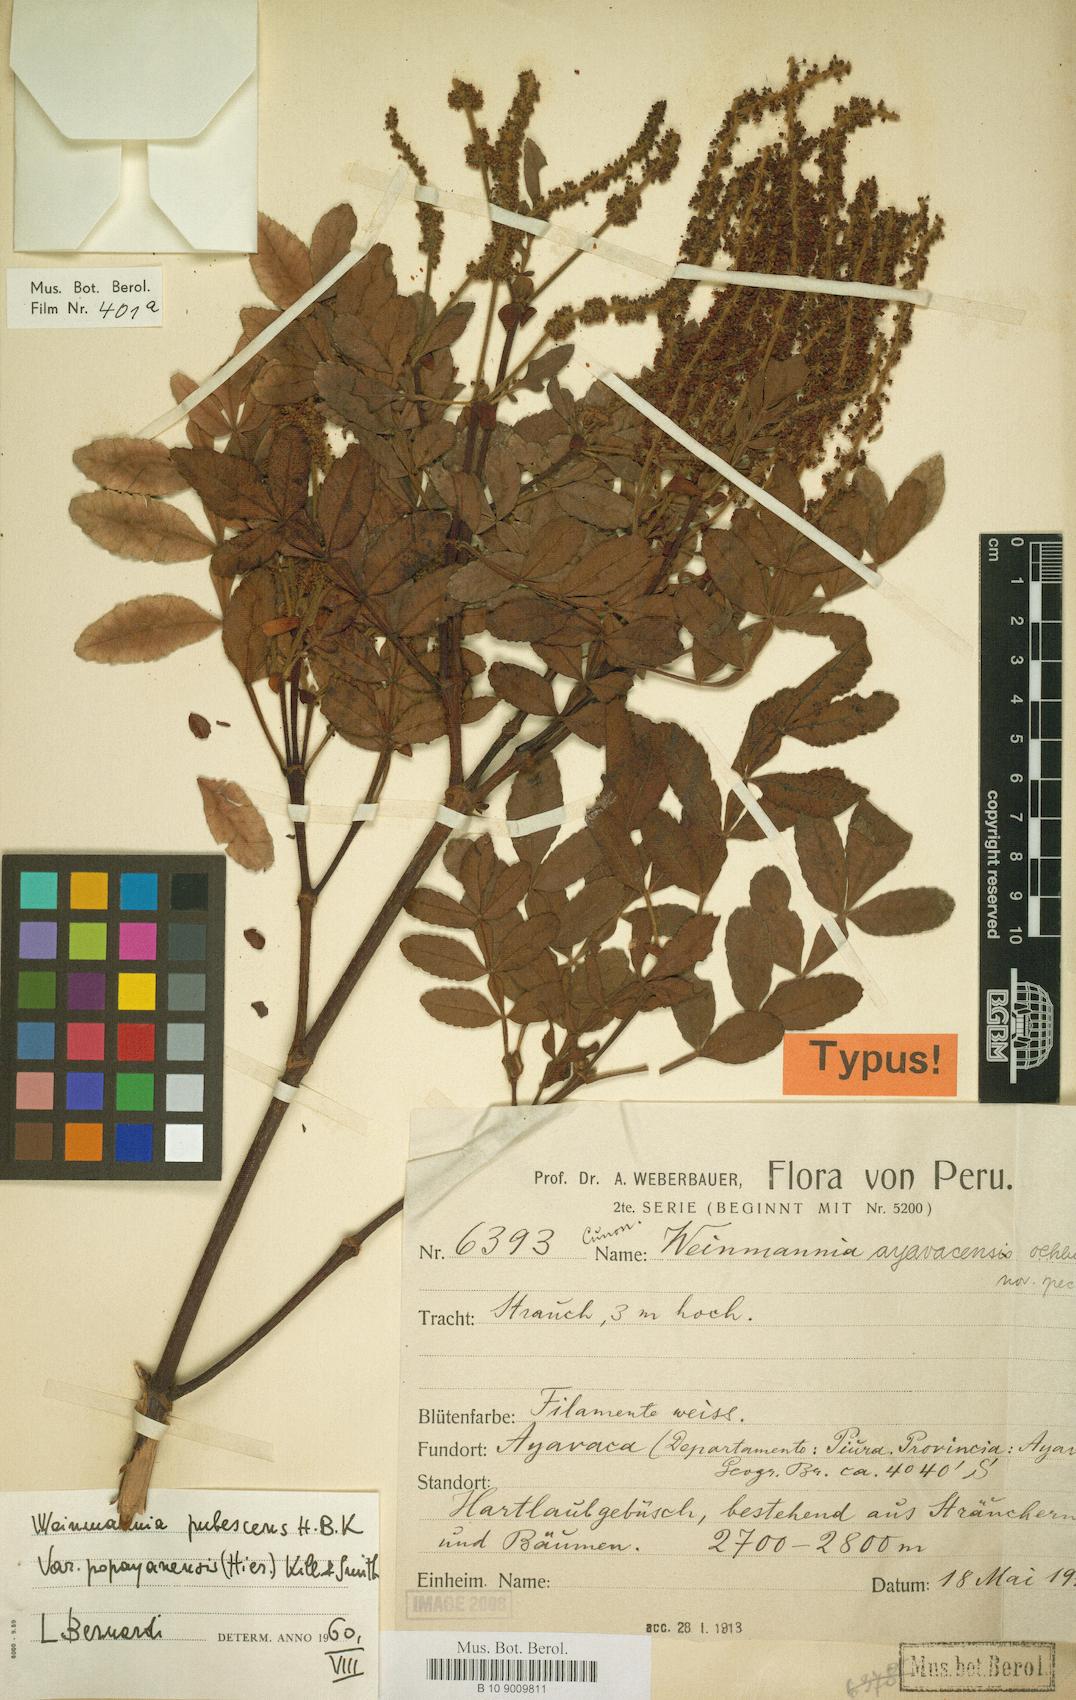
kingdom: Plantae
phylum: Tracheophyta
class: Magnoliopsida
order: Oxalidales
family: Cunoniaceae
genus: Weinmannia
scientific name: Weinmannia pubescens
